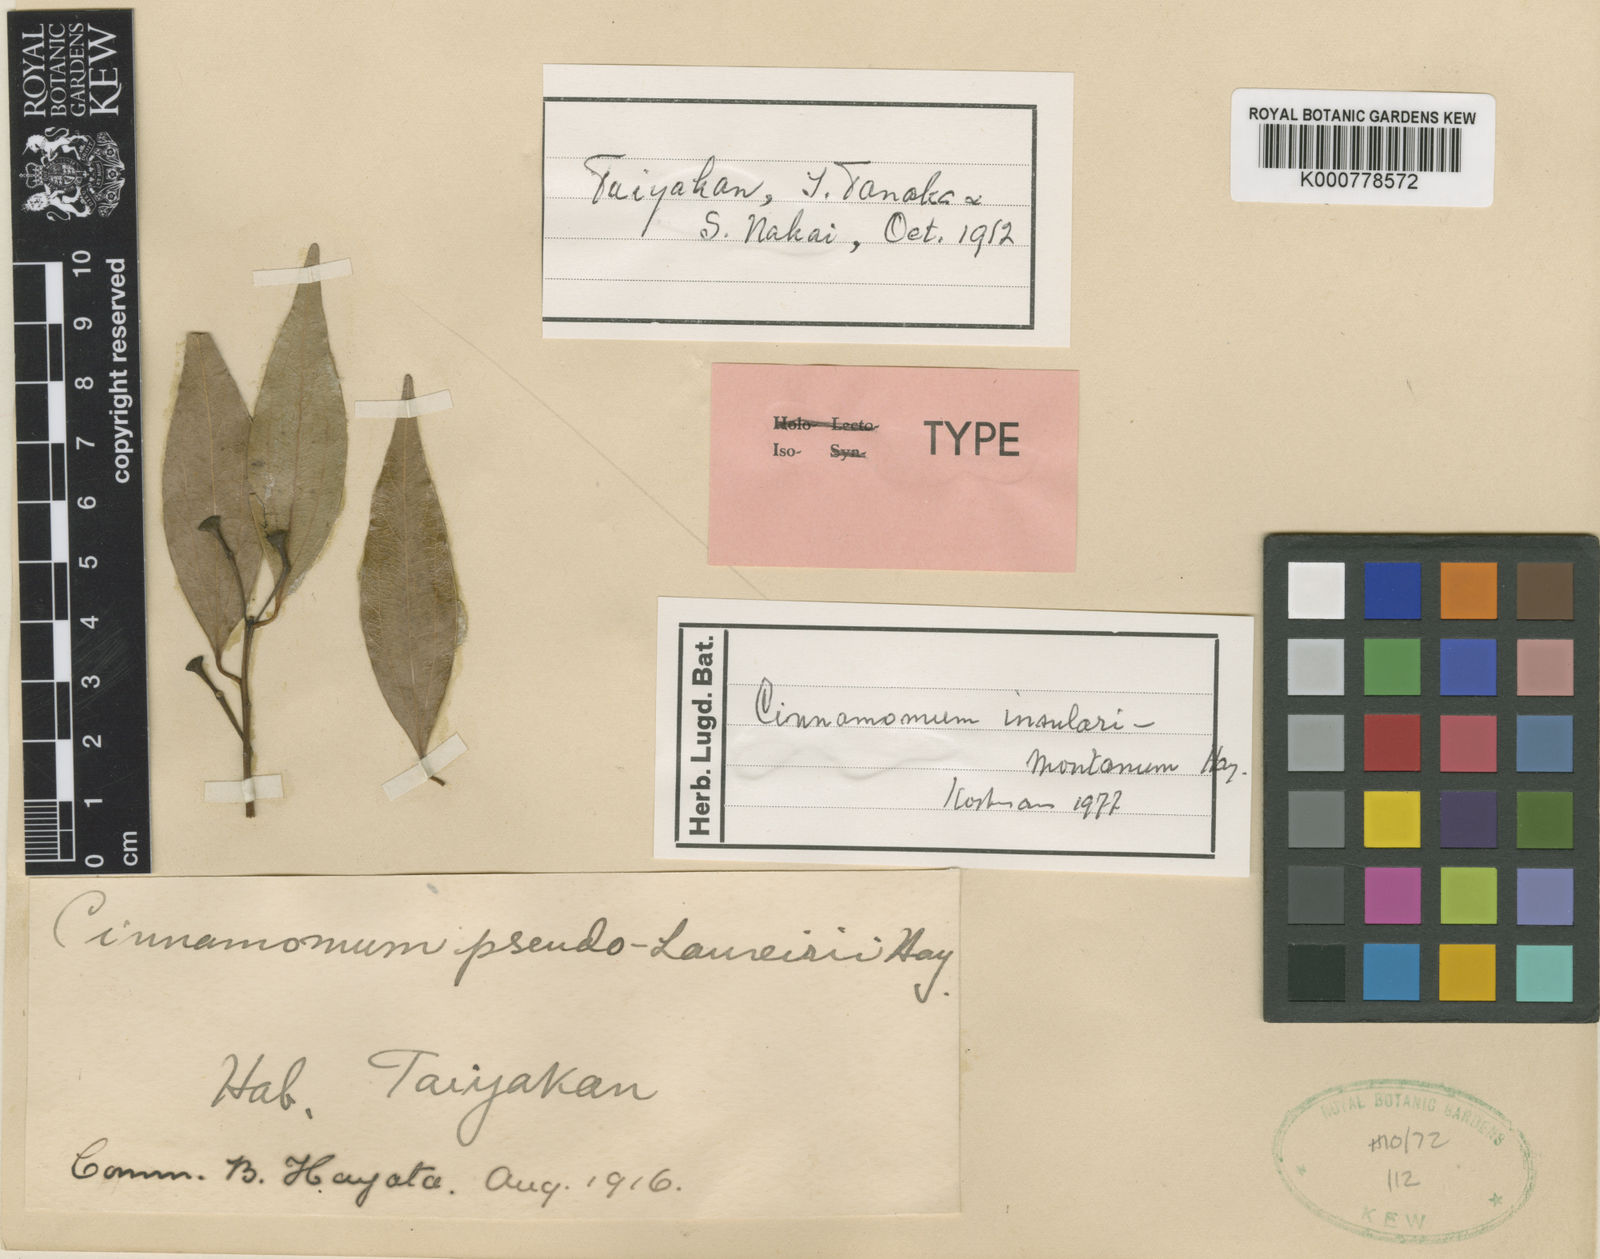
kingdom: Plantae
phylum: Tracheophyta
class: Magnoliopsida
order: Laurales
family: Lauraceae
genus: Cinnamomum
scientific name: Cinnamomum chekiangense
